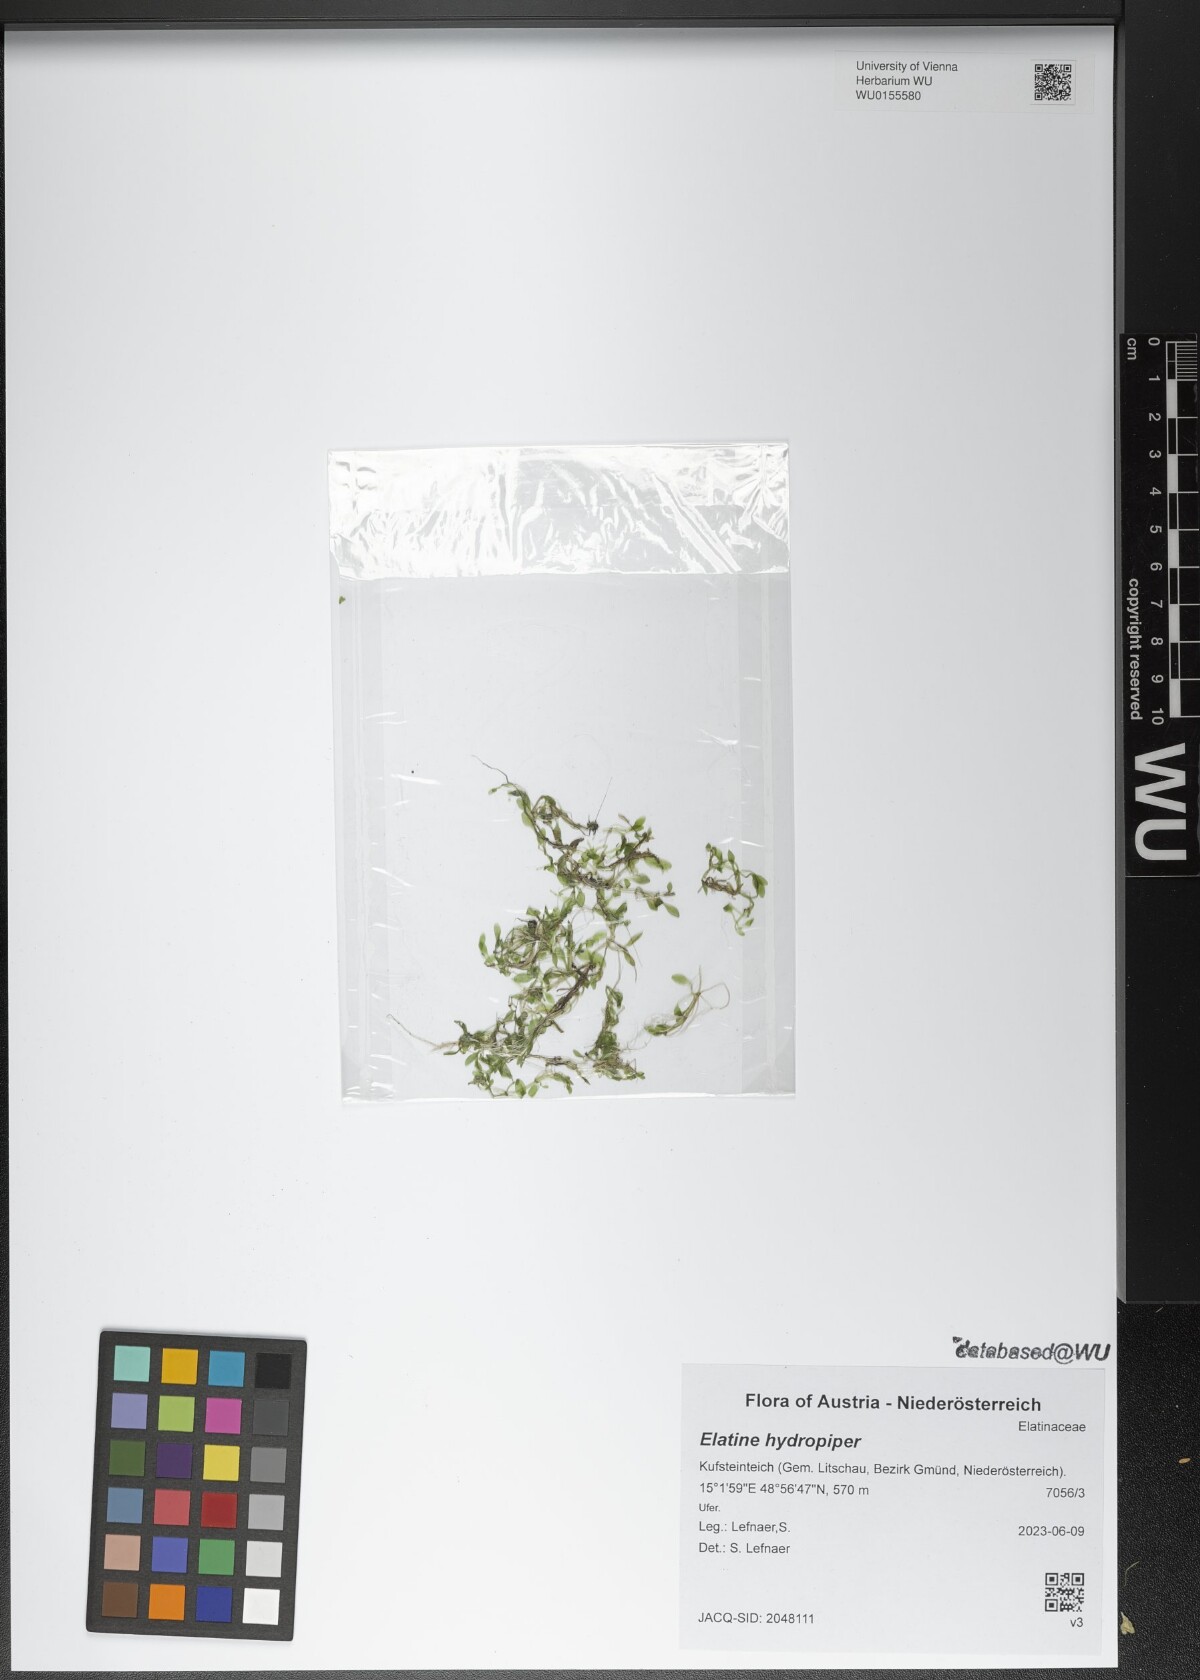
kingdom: Plantae
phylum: Tracheophyta
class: Magnoliopsida
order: Malpighiales
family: Elatinaceae
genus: Elatine
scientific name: Elatine hydropiper
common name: Eight-stamened waterwort
